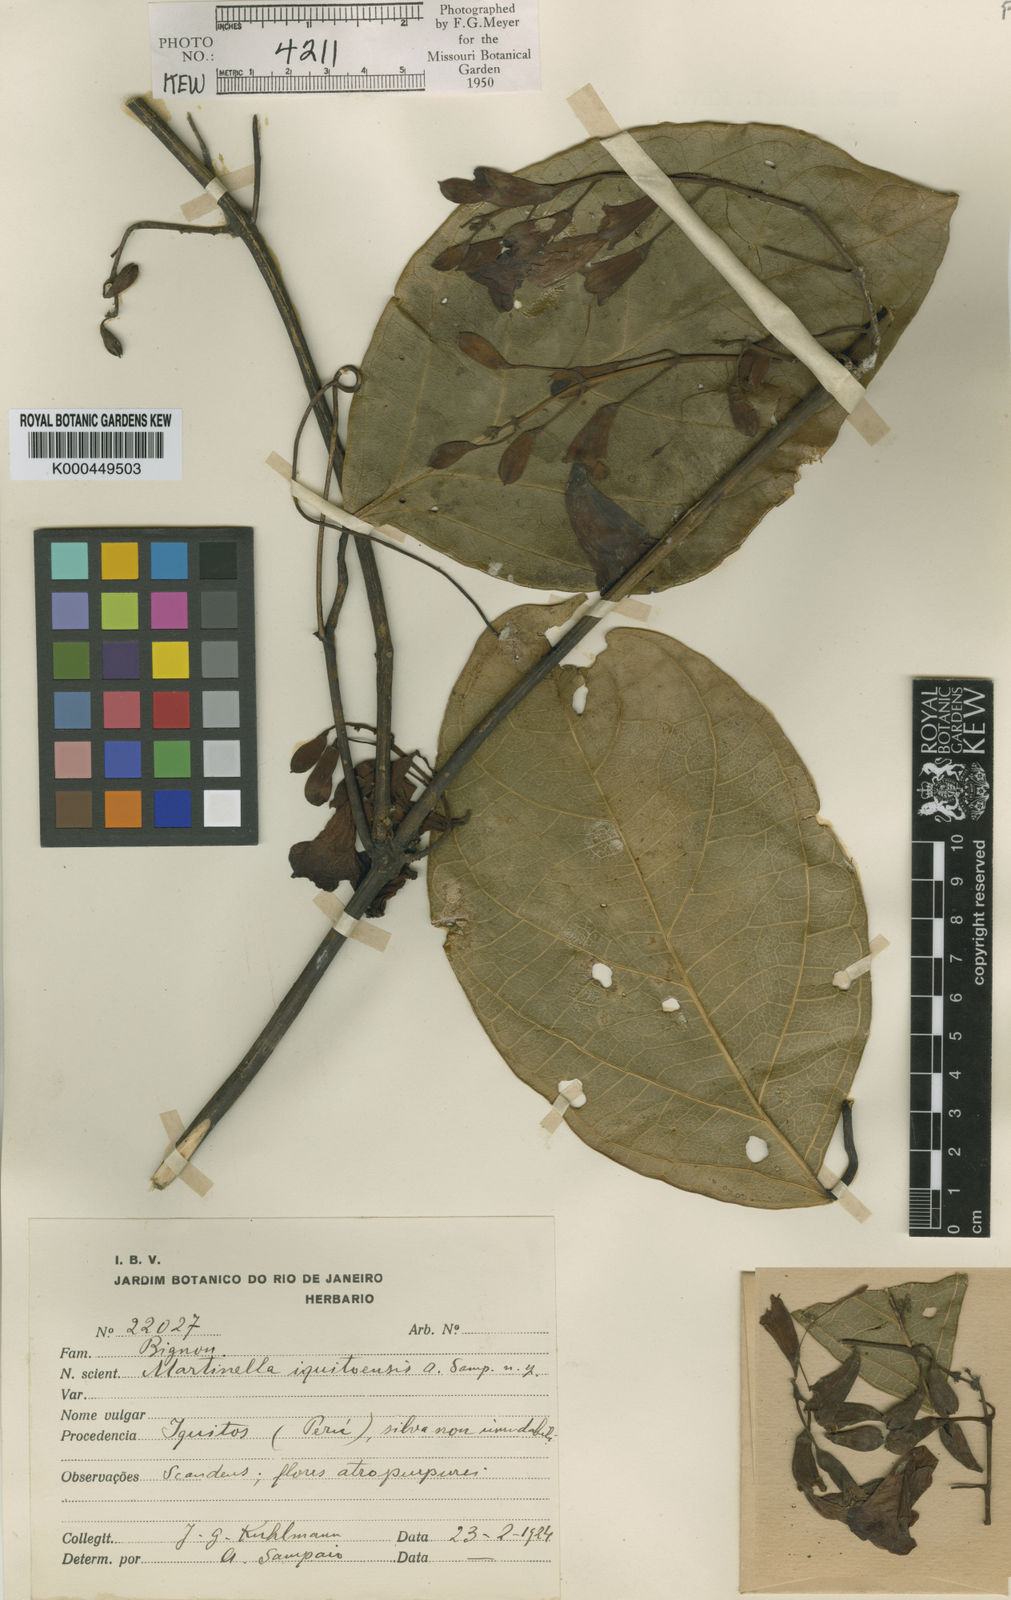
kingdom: Plantae
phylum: Tracheophyta
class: Magnoliopsida
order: Lamiales
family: Bignoniaceae
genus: Martinella
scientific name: Martinella iquitoensis
